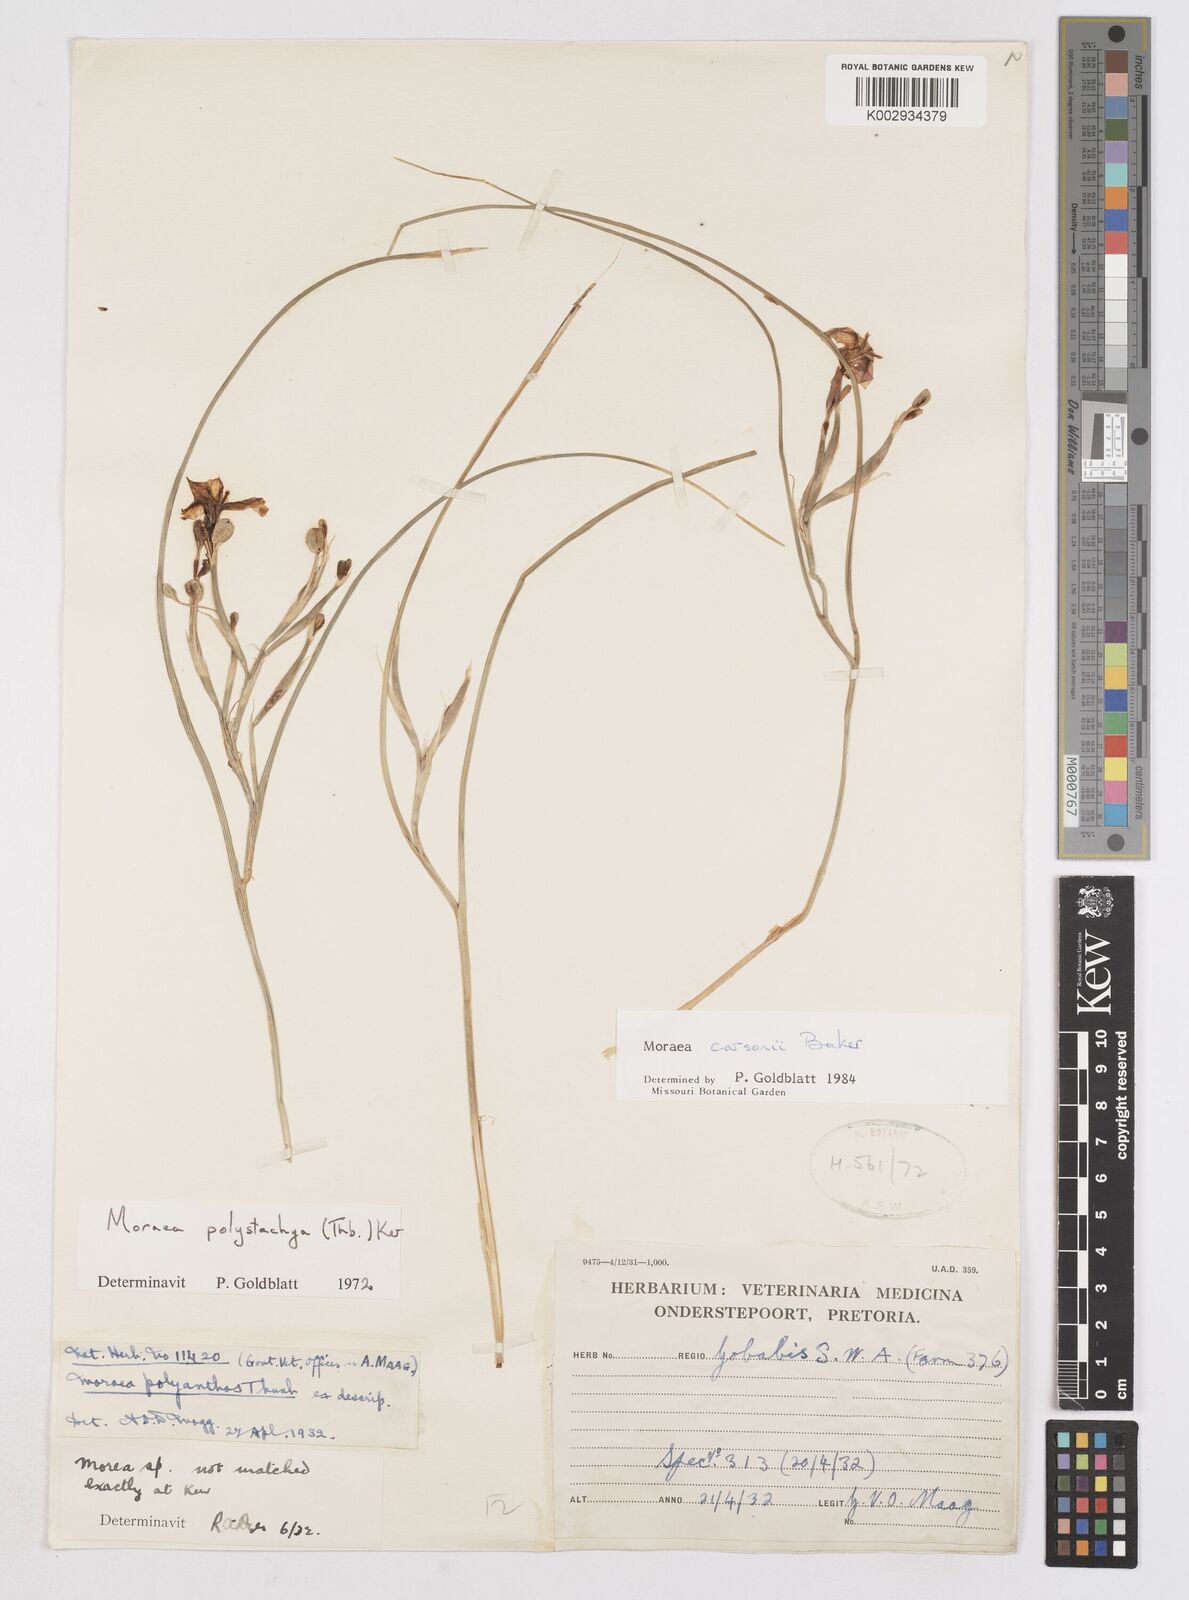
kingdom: Plantae
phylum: Tracheophyta
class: Liliopsida
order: Asparagales
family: Iridaceae
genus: Moraea
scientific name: Moraea carsonii
